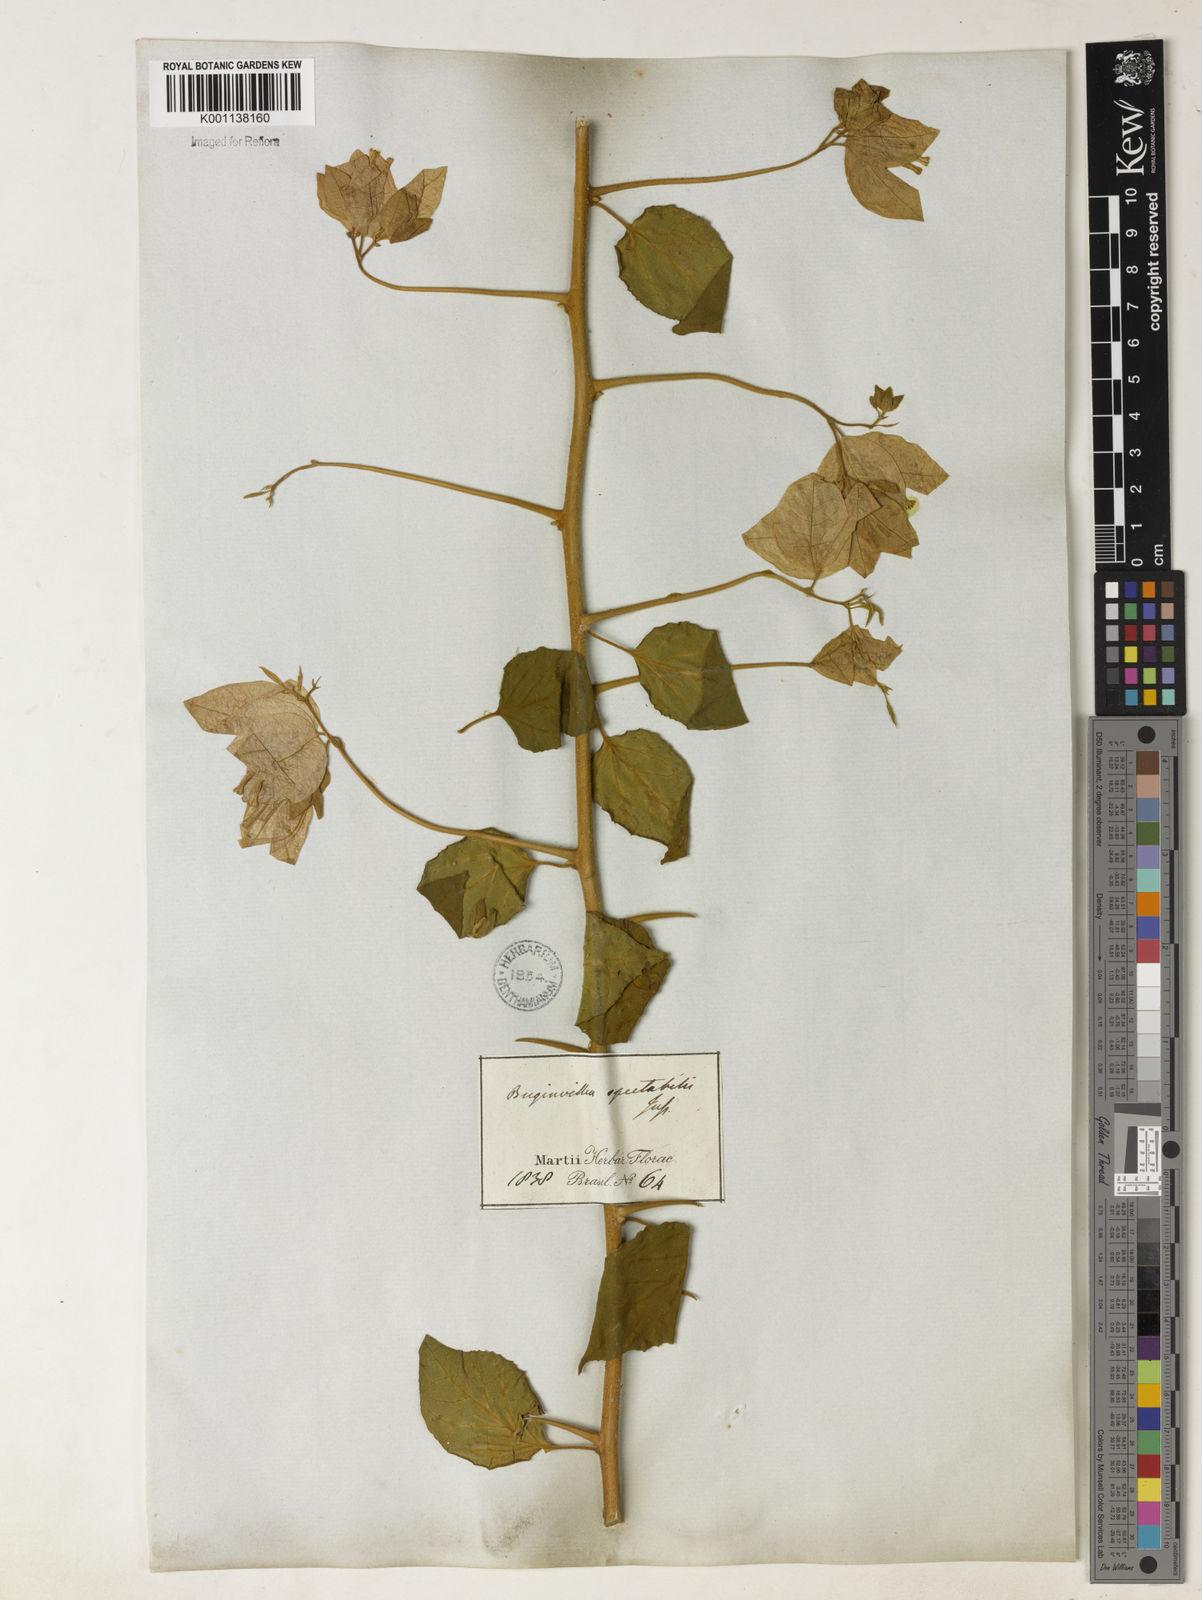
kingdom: Plantae
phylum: Tracheophyta
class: Magnoliopsida
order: Caryophyllales
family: Nyctaginaceae
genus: Bougainvillea
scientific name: Bougainvillea spectabilis
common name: Great bougainvillea
